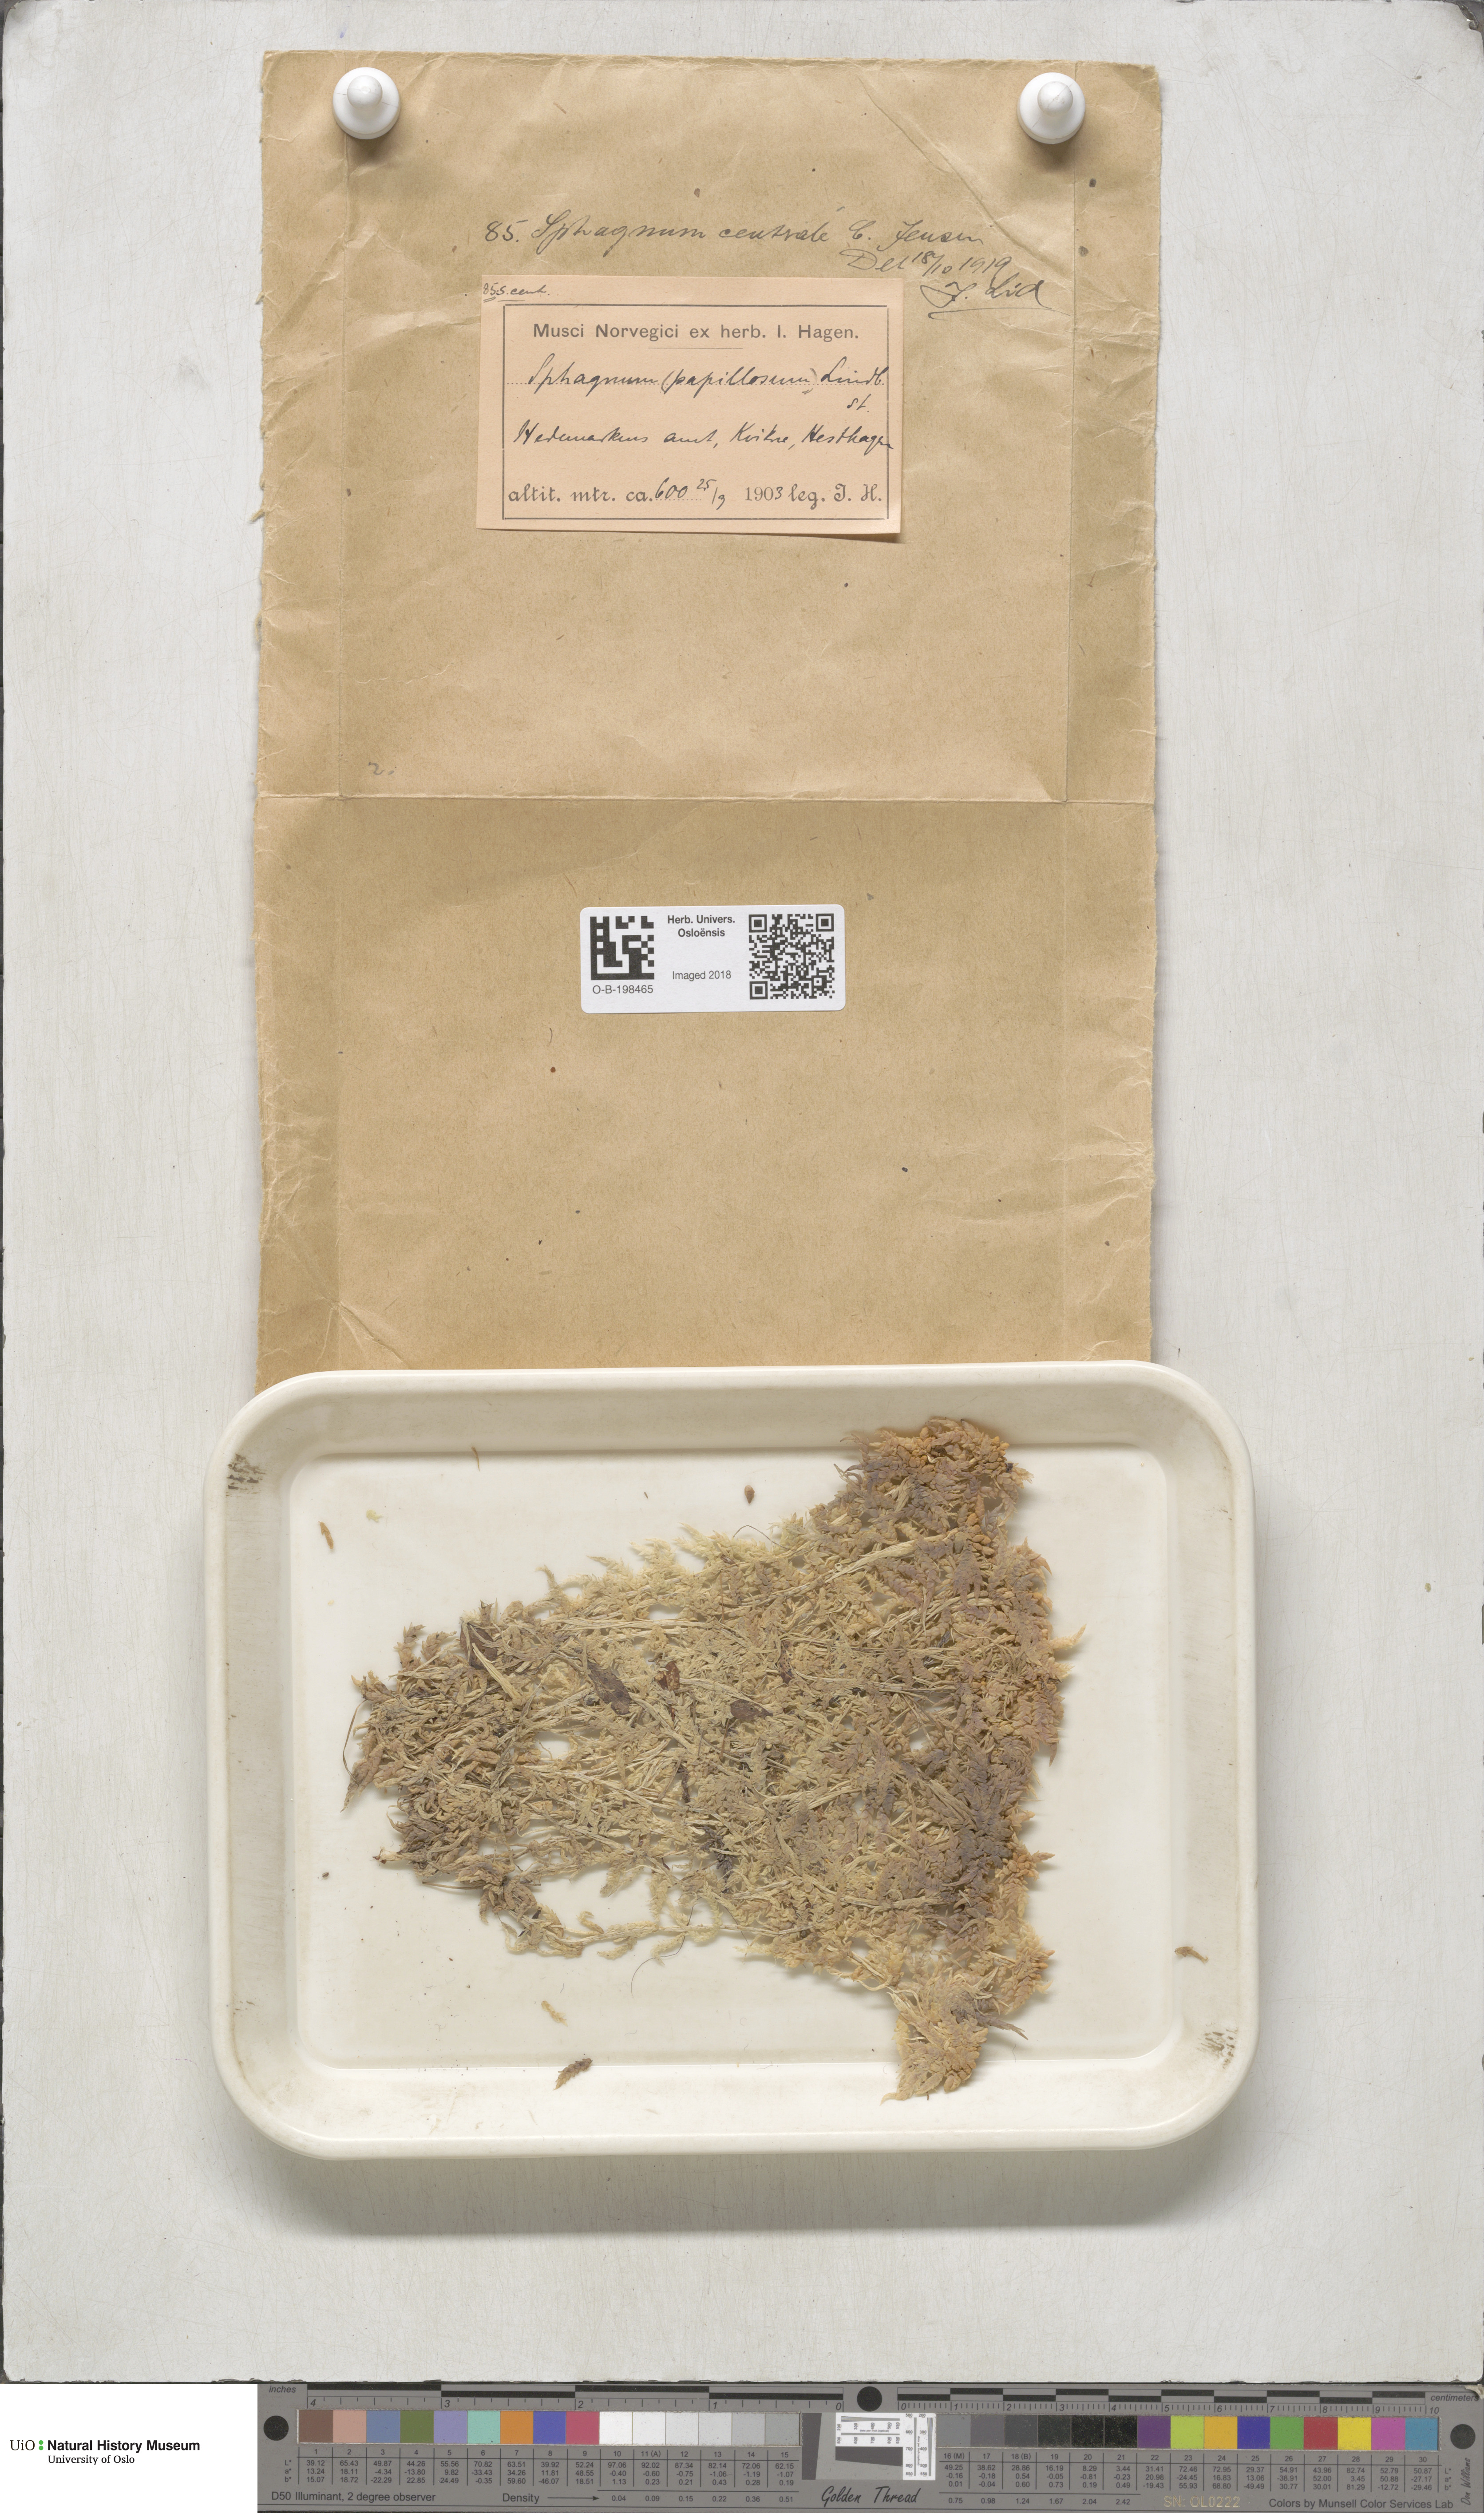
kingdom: Plantae
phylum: Bryophyta
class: Sphagnopsida
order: Sphagnales
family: Sphagnaceae
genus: Sphagnum
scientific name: Sphagnum centrale
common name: Central peat moss
